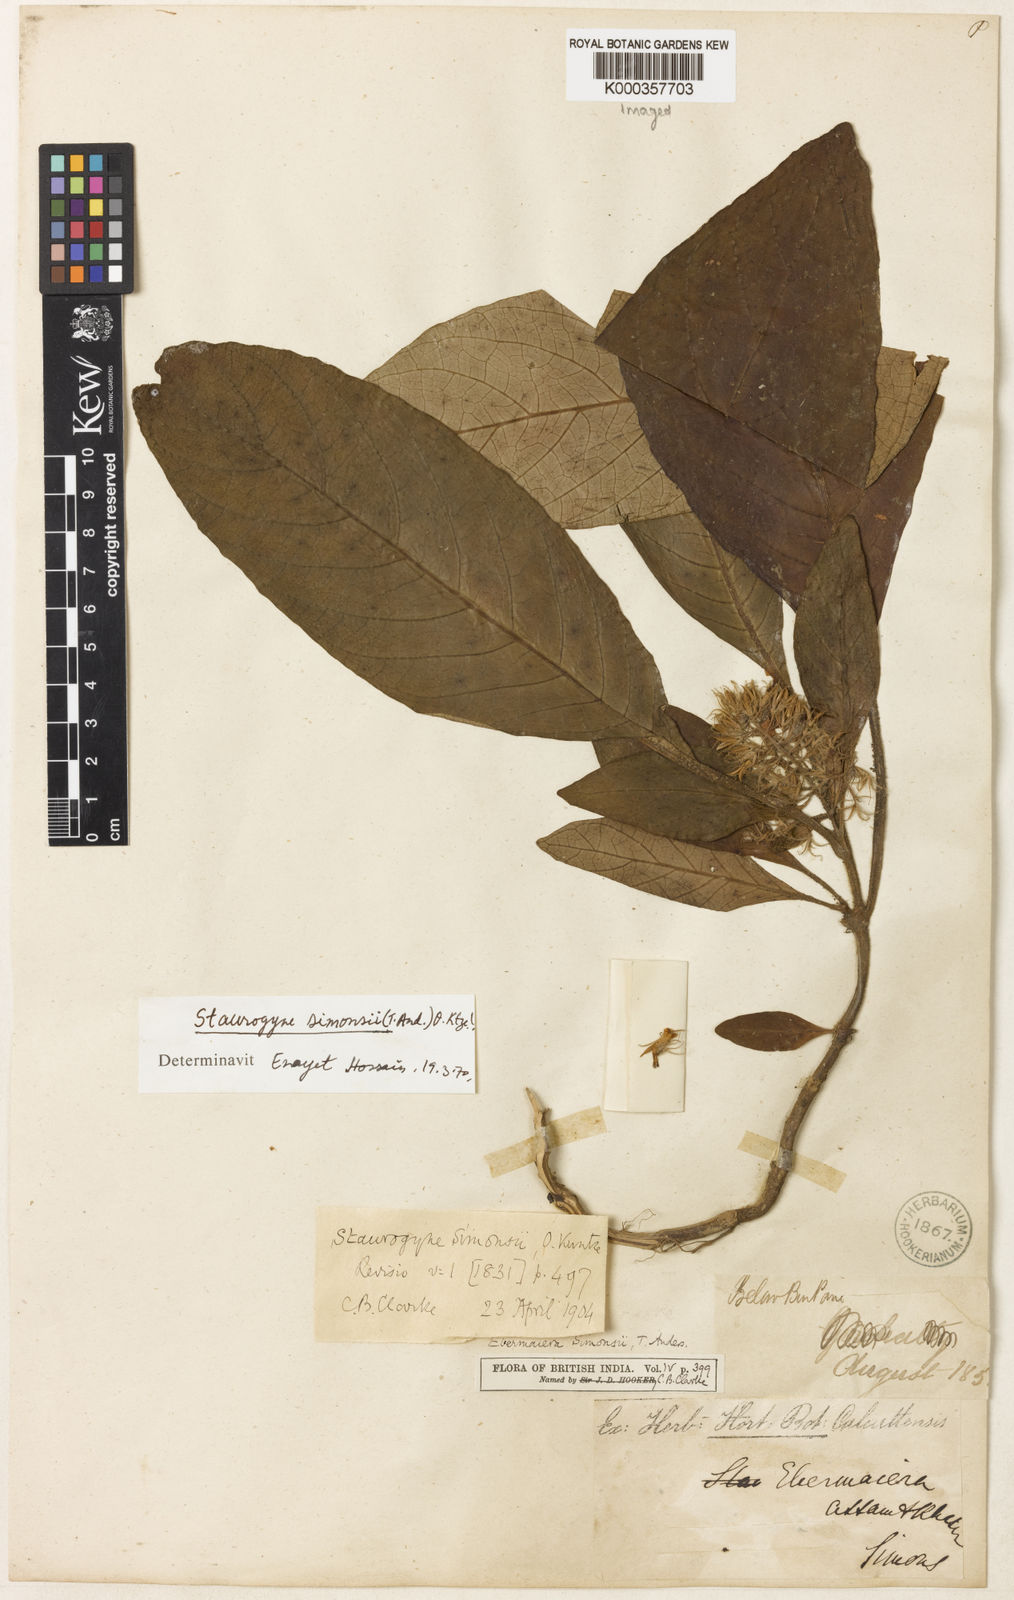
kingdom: Plantae
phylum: Tracheophyta
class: Magnoliopsida
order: Lamiales
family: Acanthaceae
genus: Staurogyne
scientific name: Staurogyne simonsii
